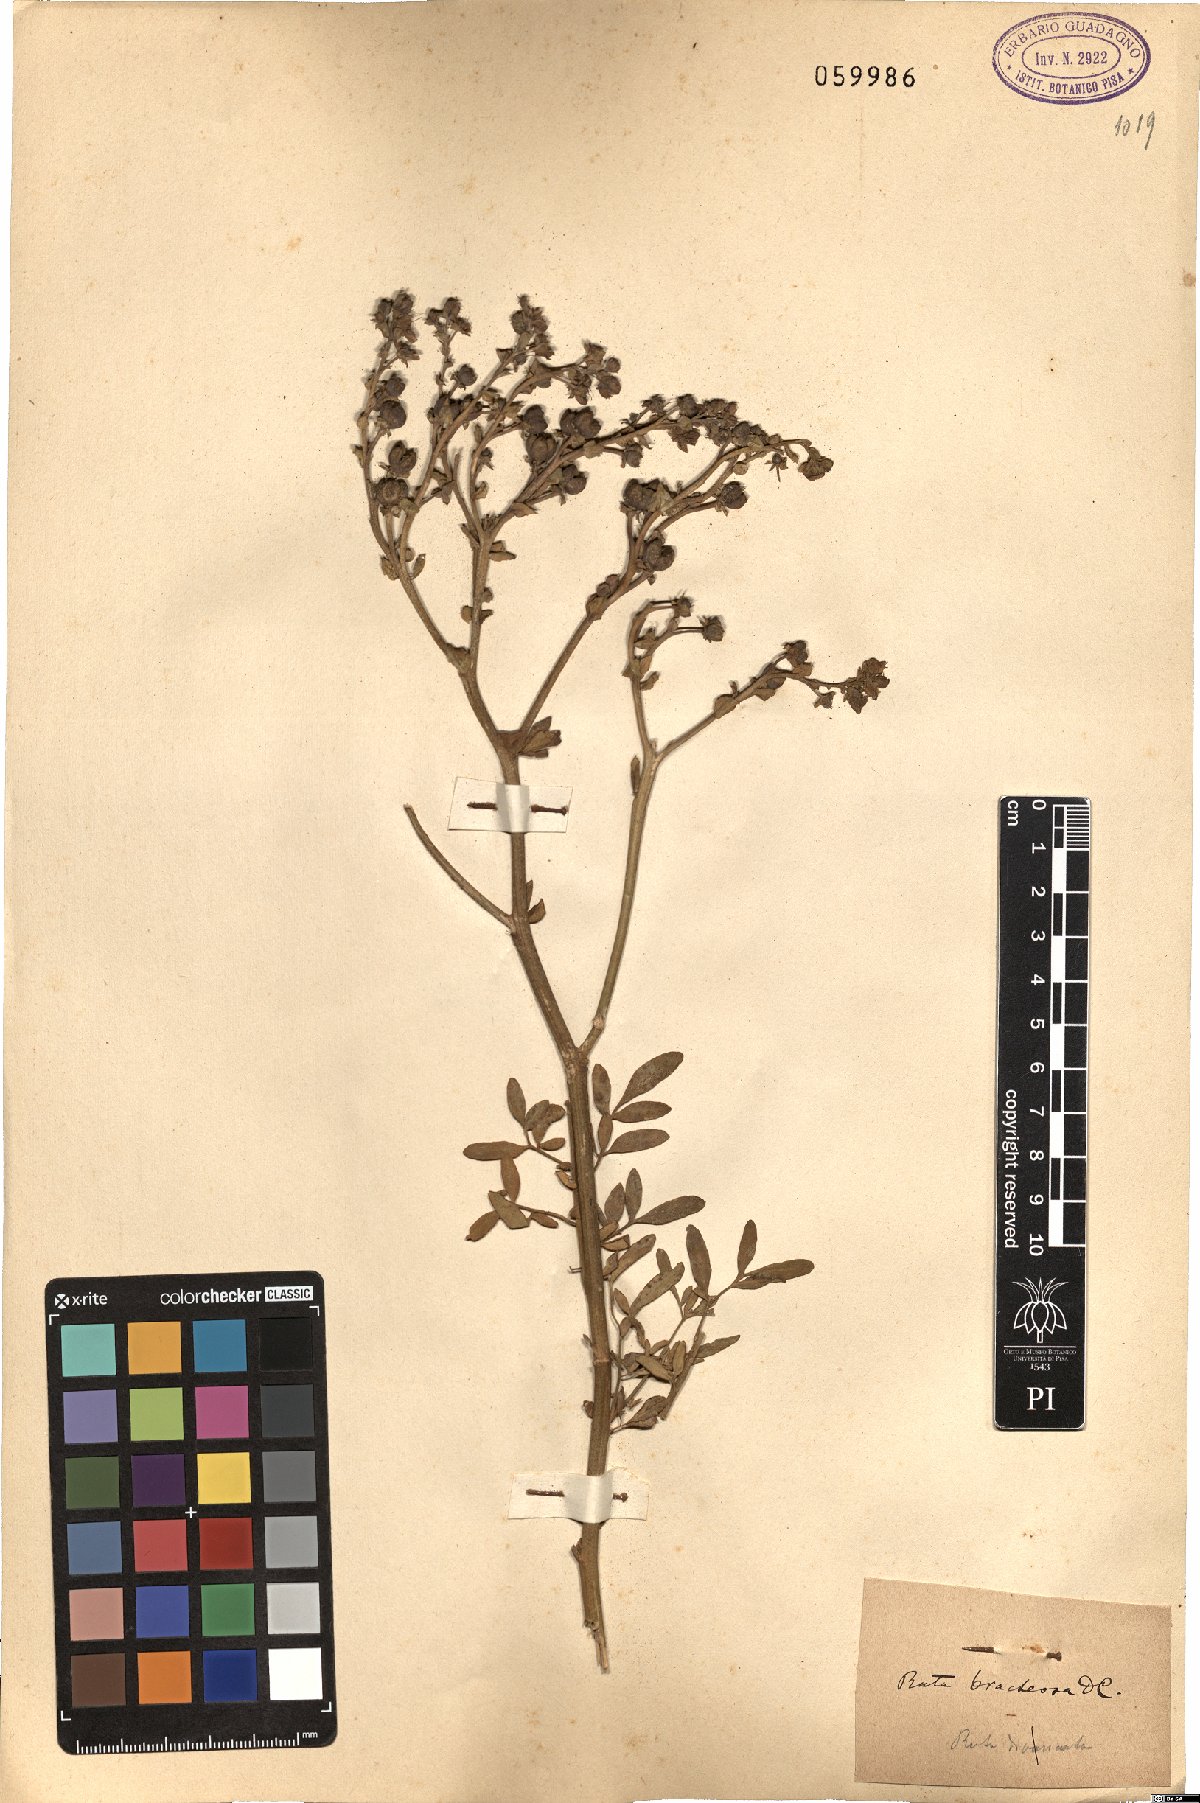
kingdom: Plantae
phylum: Tracheophyta
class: Magnoliopsida
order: Sapindales
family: Rutaceae
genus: Ruta
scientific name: Ruta chalepensis
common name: Fringed rue
